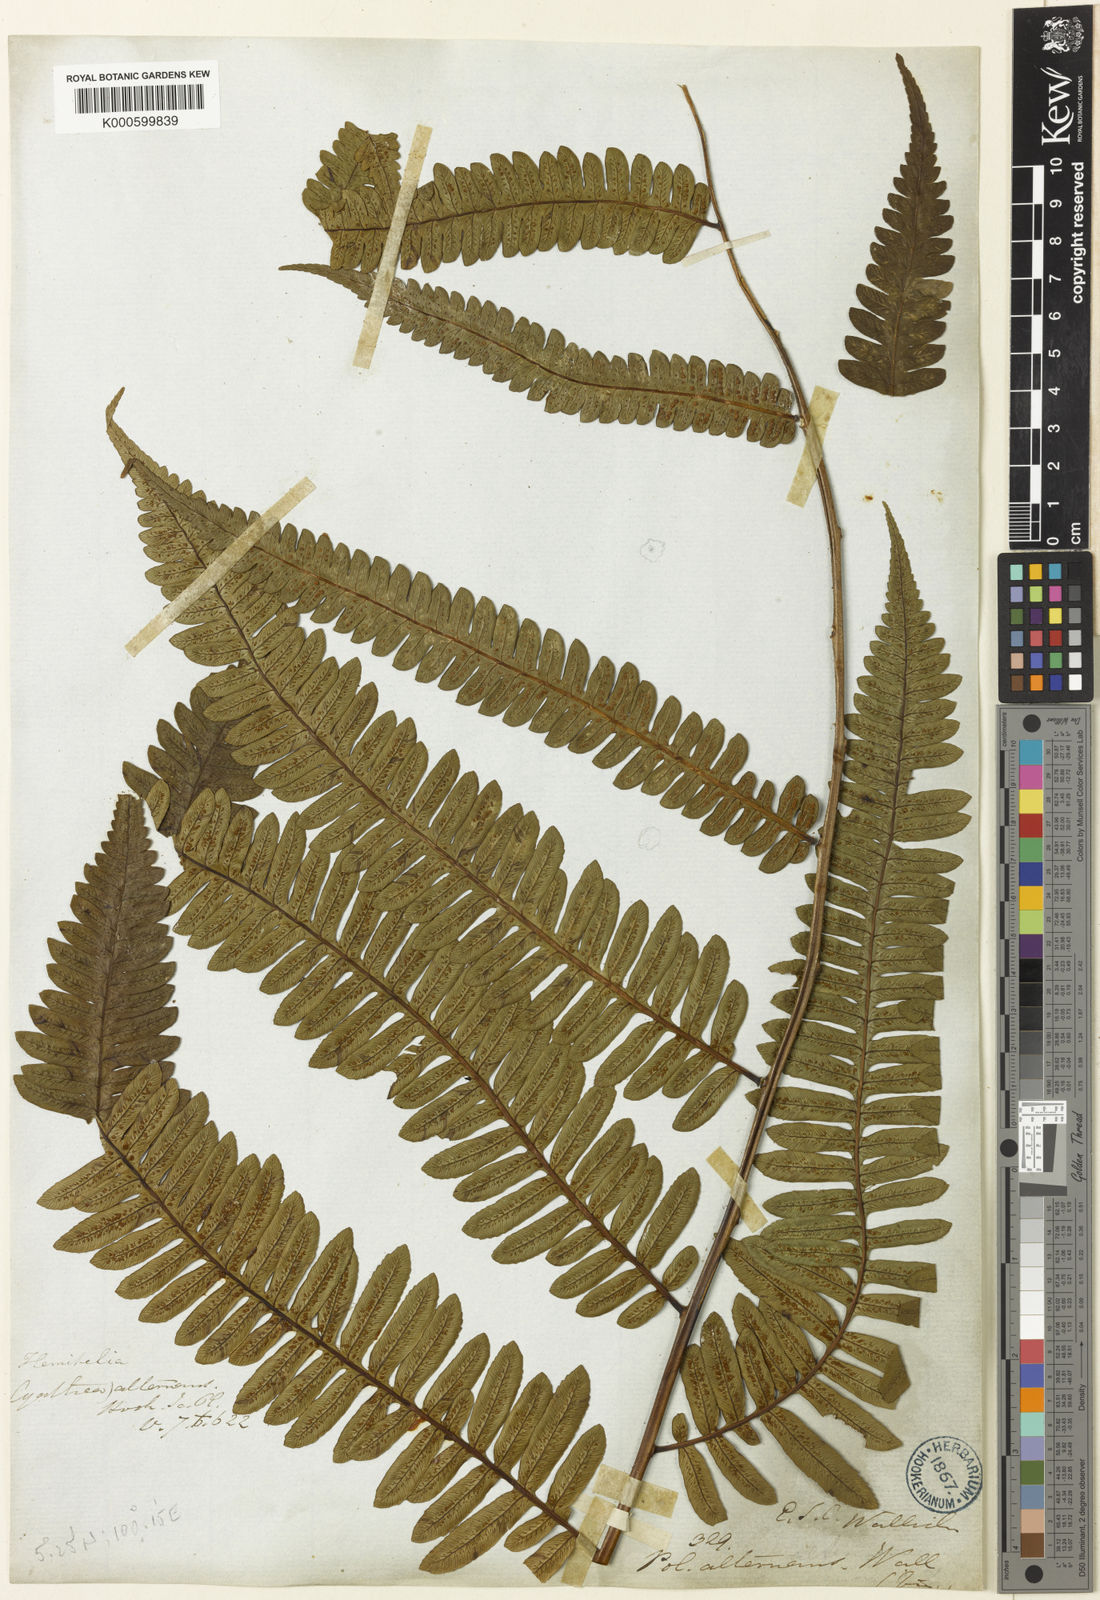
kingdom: Plantae
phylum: Tracheophyta
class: Polypodiopsida
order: Cyatheales
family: Cyatheaceae
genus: Alsophila
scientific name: Alsophila alternans
